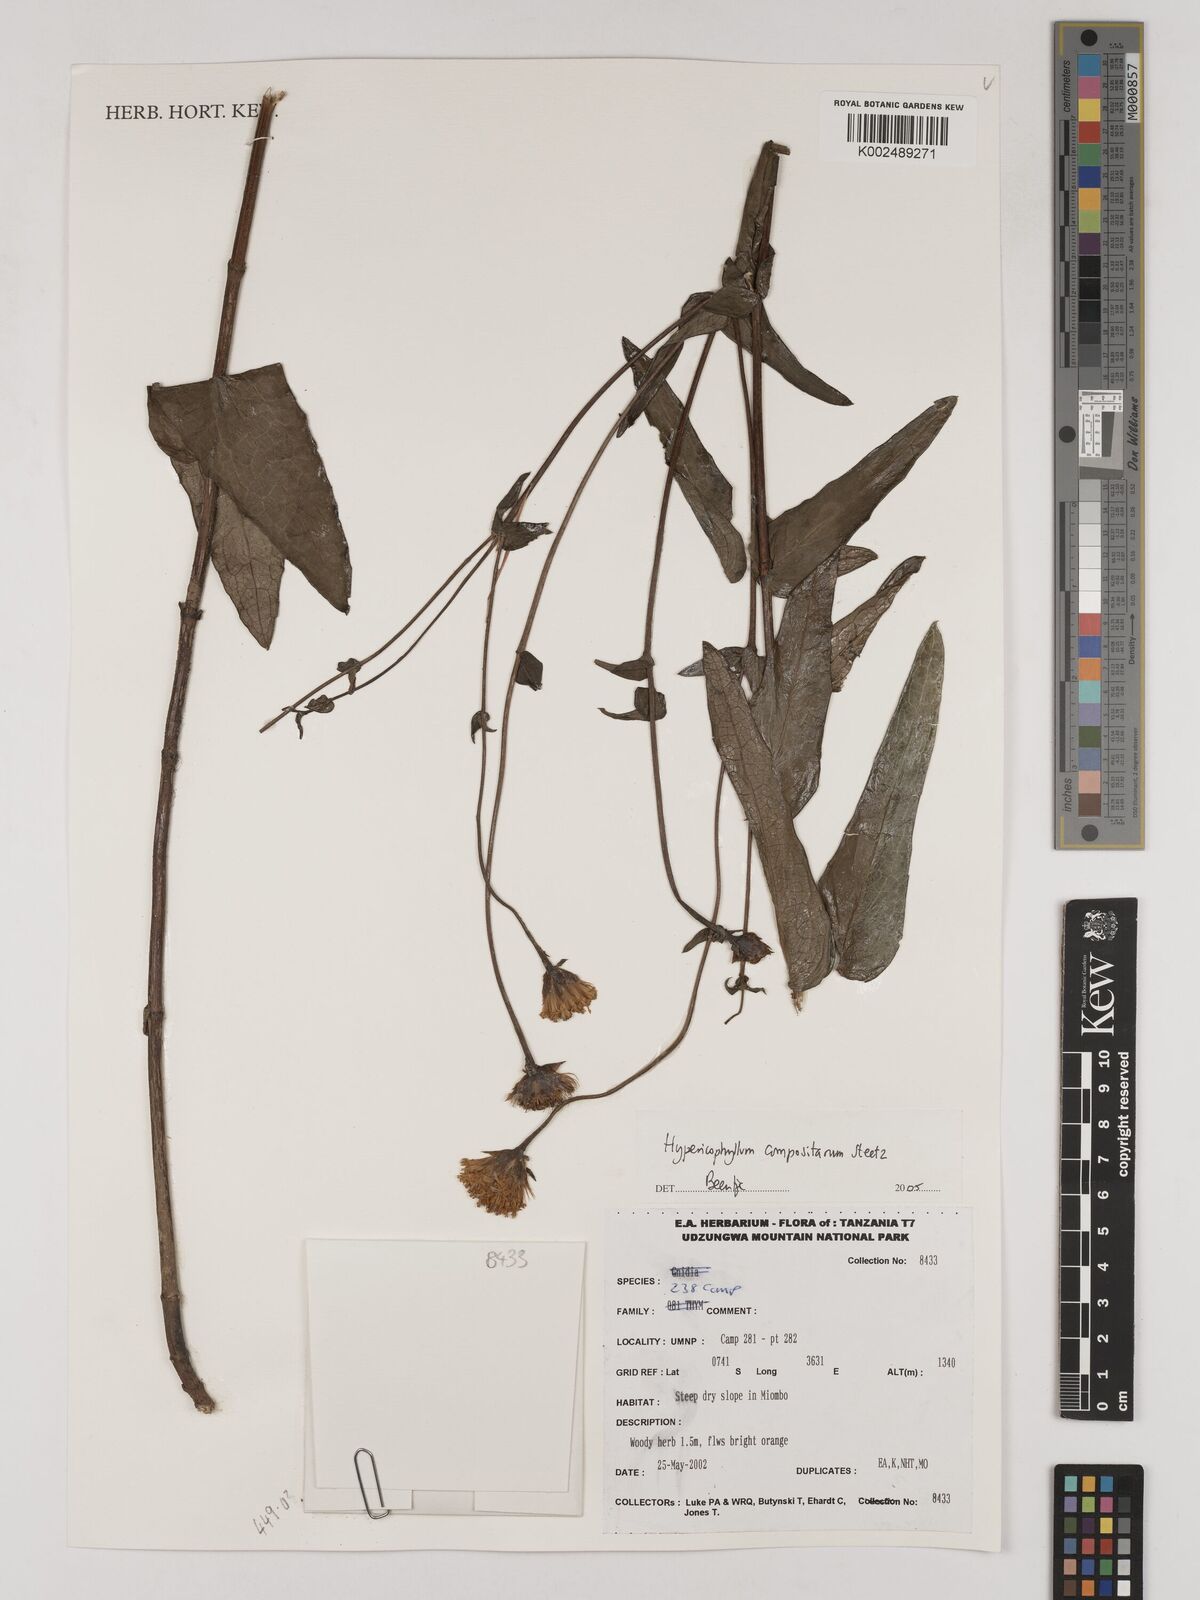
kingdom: Plantae
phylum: Tracheophyta
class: Magnoliopsida
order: Asterales
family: Asteraceae
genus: Hypericophyllum
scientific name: Hypericophyllum compositarum
